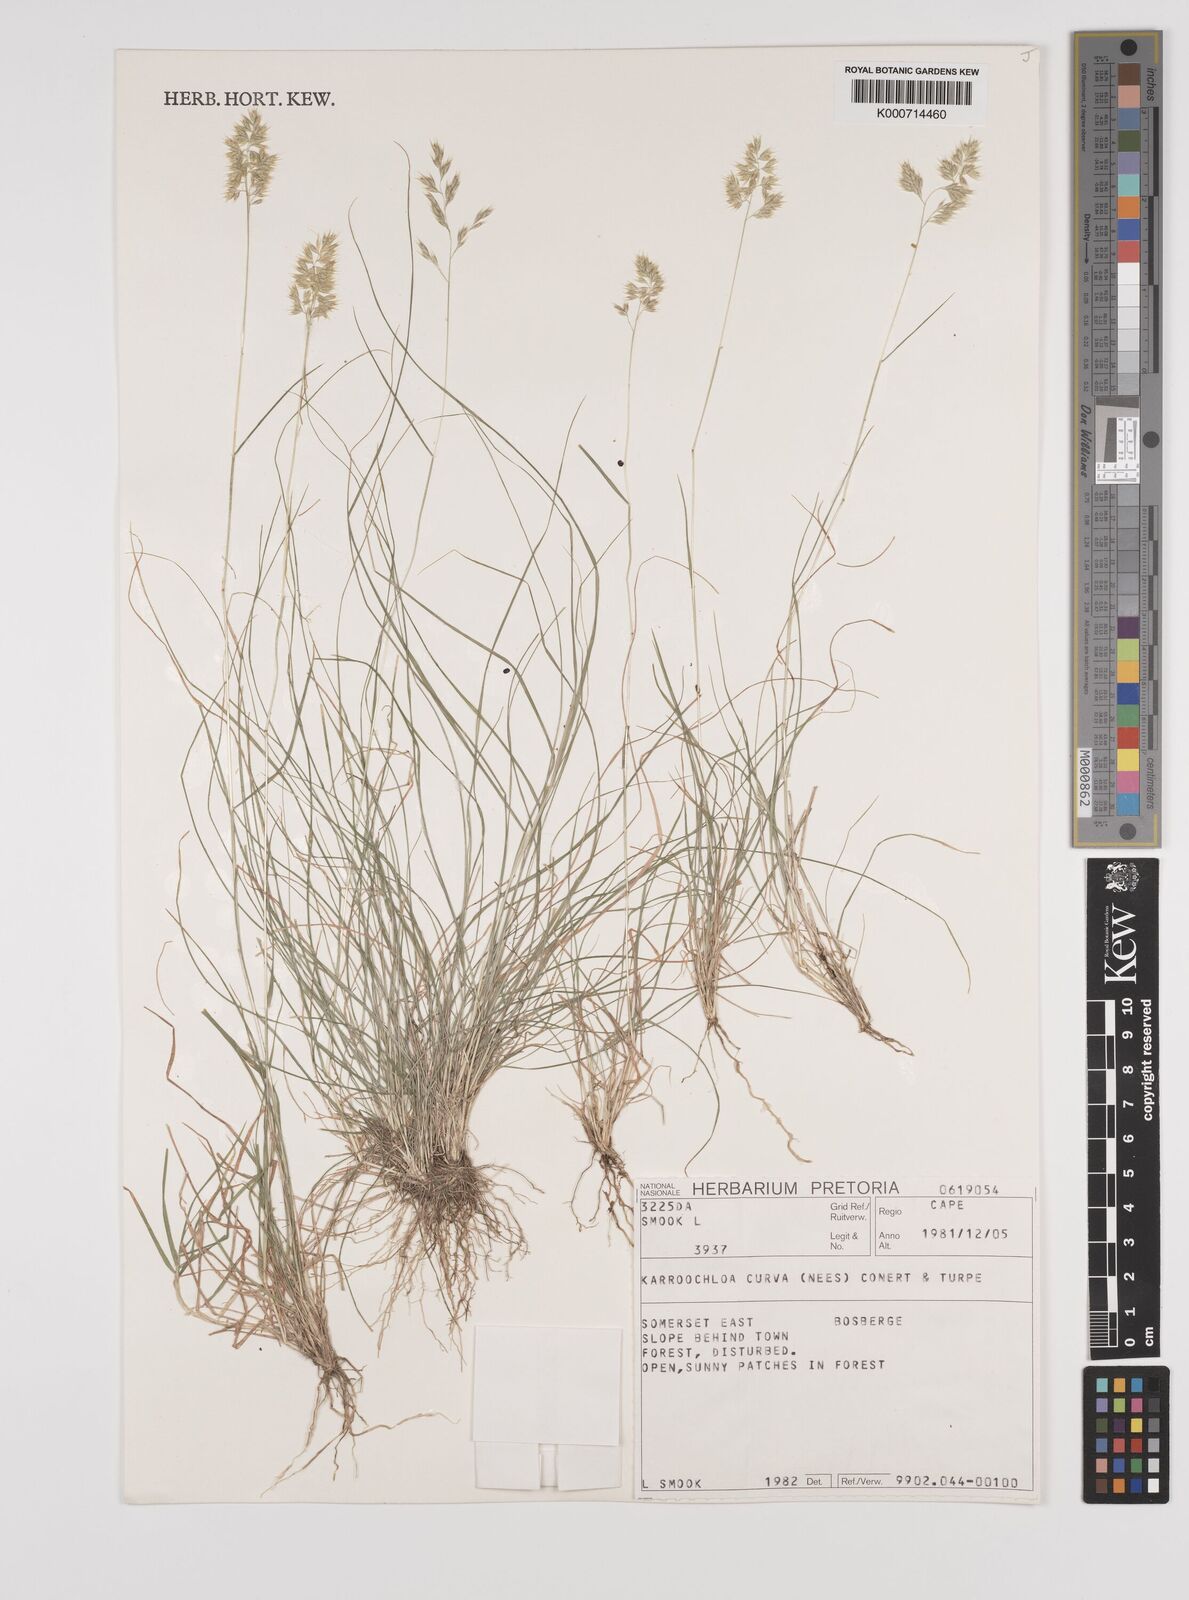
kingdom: Plantae
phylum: Tracheophyta
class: Liliopsida
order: Poales
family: Poaceae
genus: Rytidosperma
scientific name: Rytidosperma
